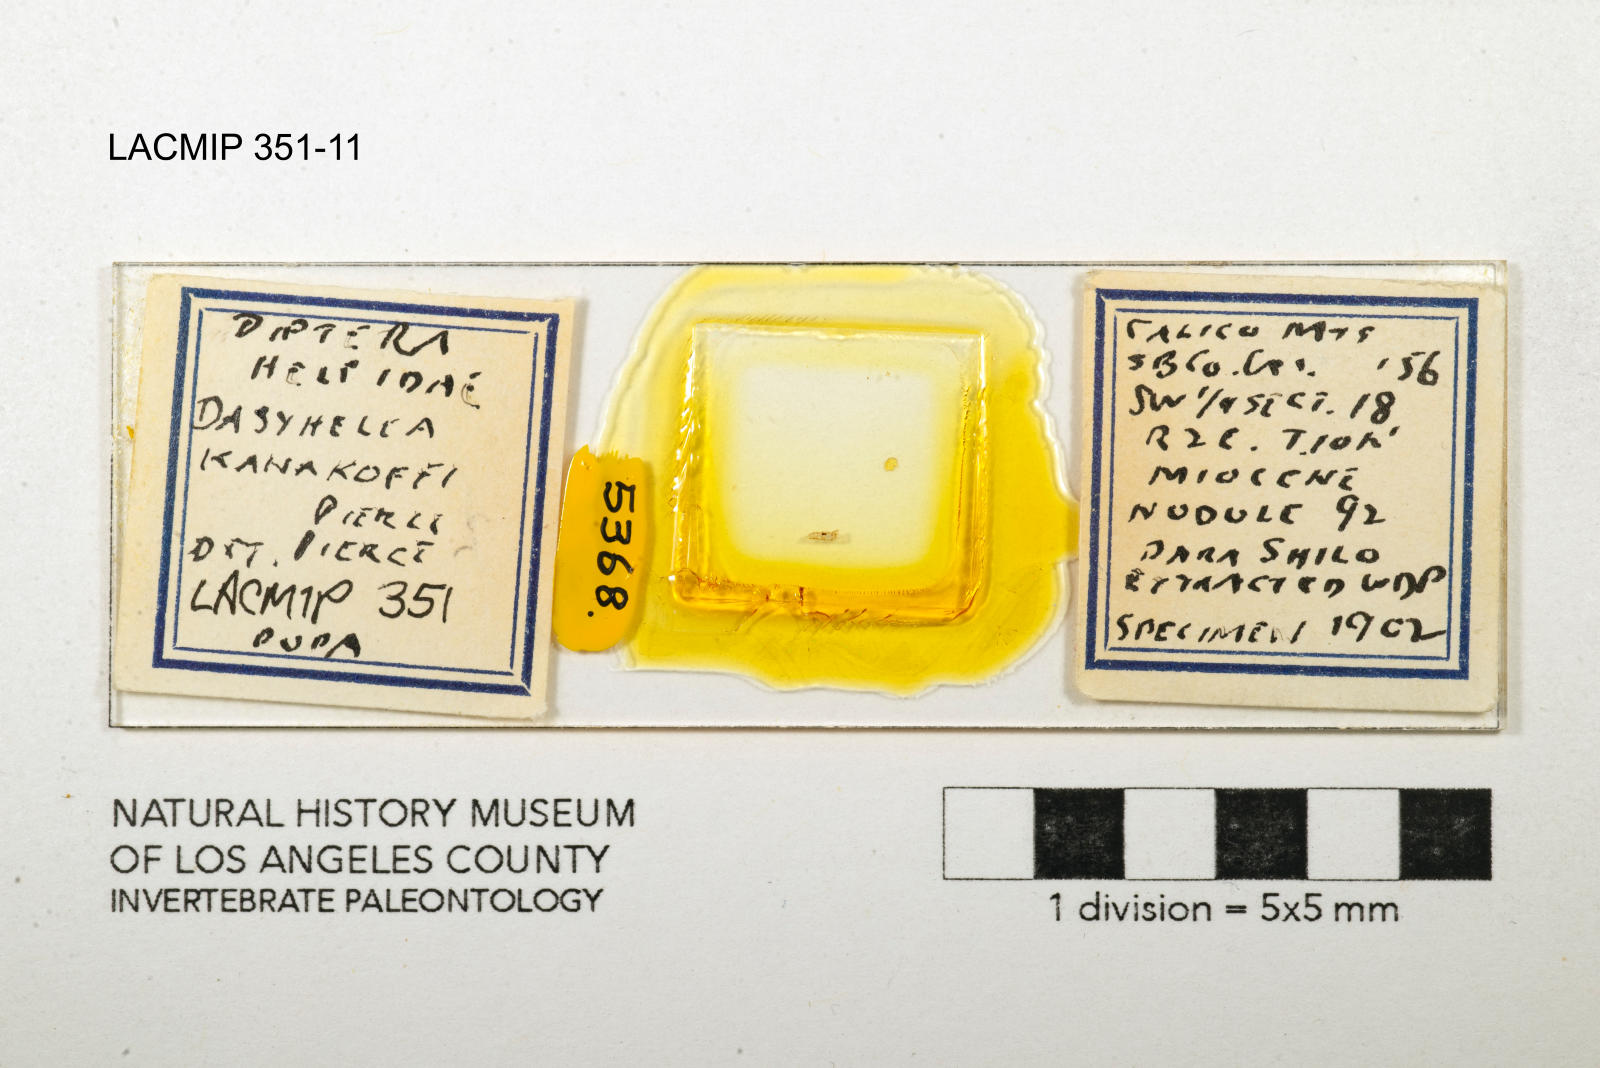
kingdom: Animalia
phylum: Arthropoda
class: Insecta
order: Diptera
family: Ceratopogonidae
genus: Dasyhelea
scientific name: Dasyhelea kanakoffi
